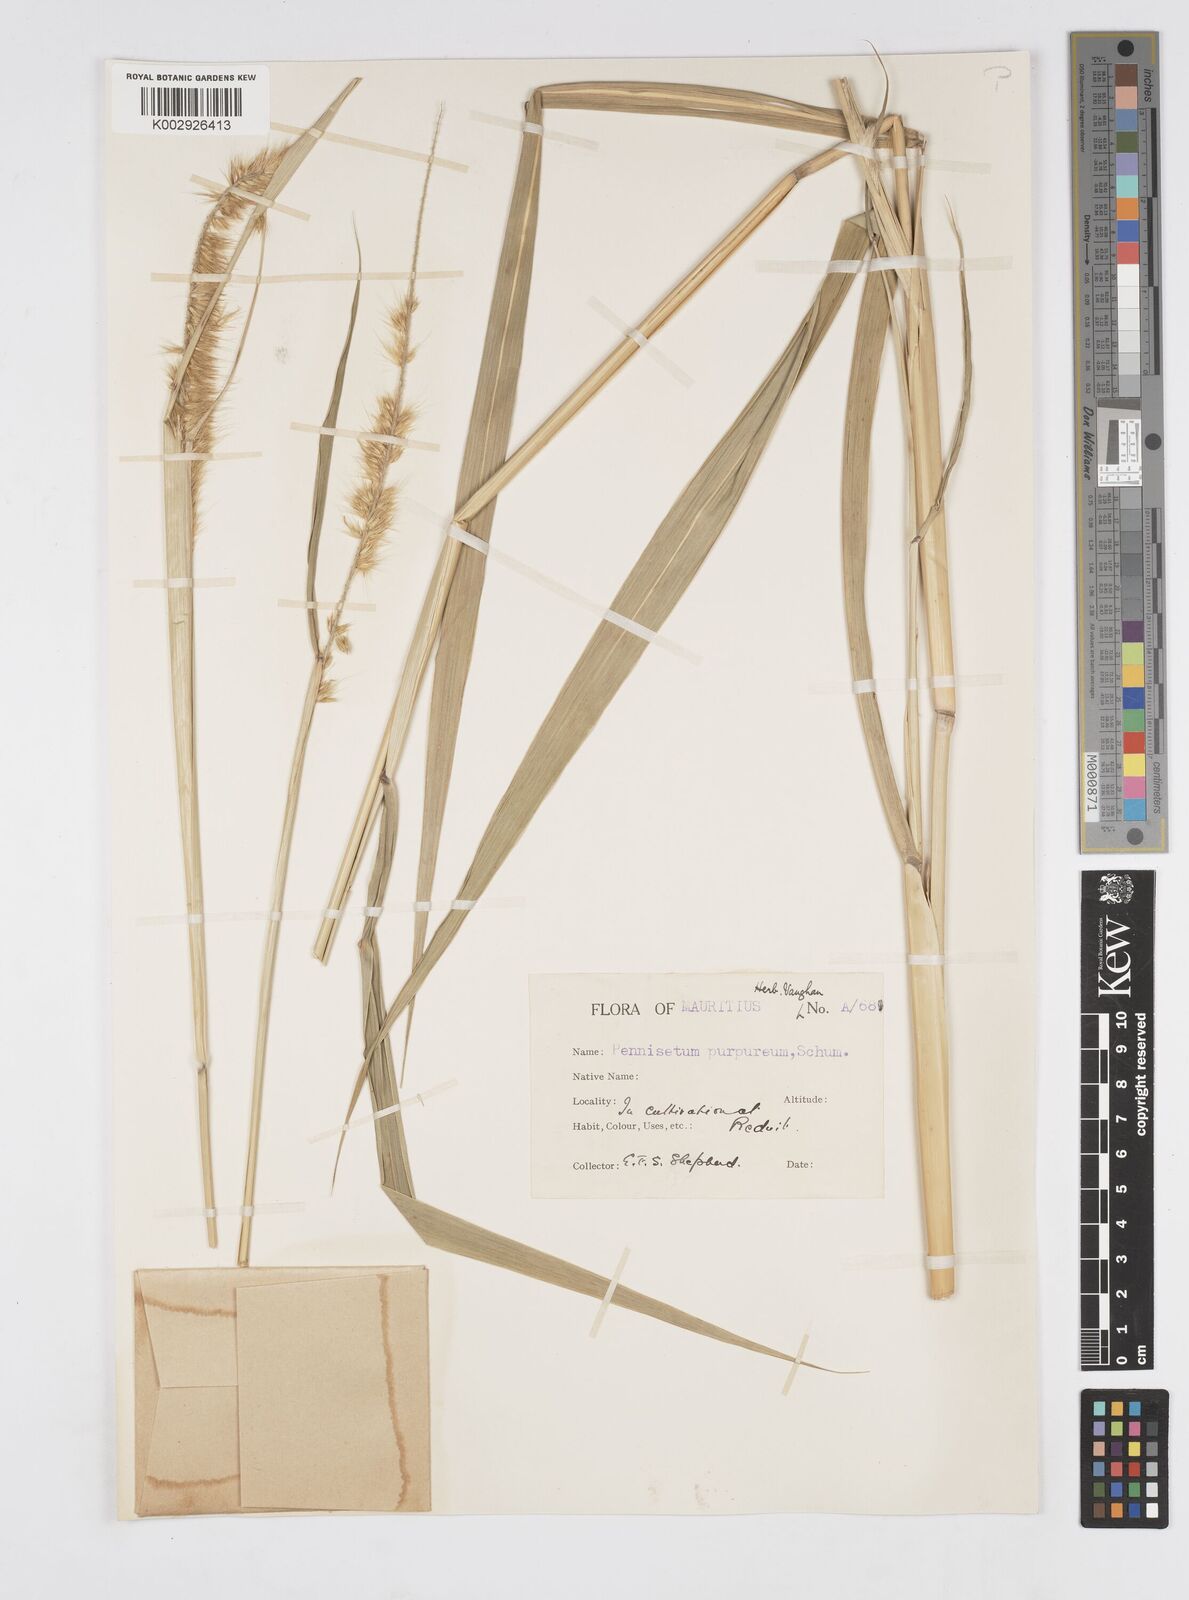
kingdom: Plantae
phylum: Tracheophyta
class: Liliopsida
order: Poales
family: Poaceae
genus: Cenchrus
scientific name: Cenchrus purpureus
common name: Elephant grass
